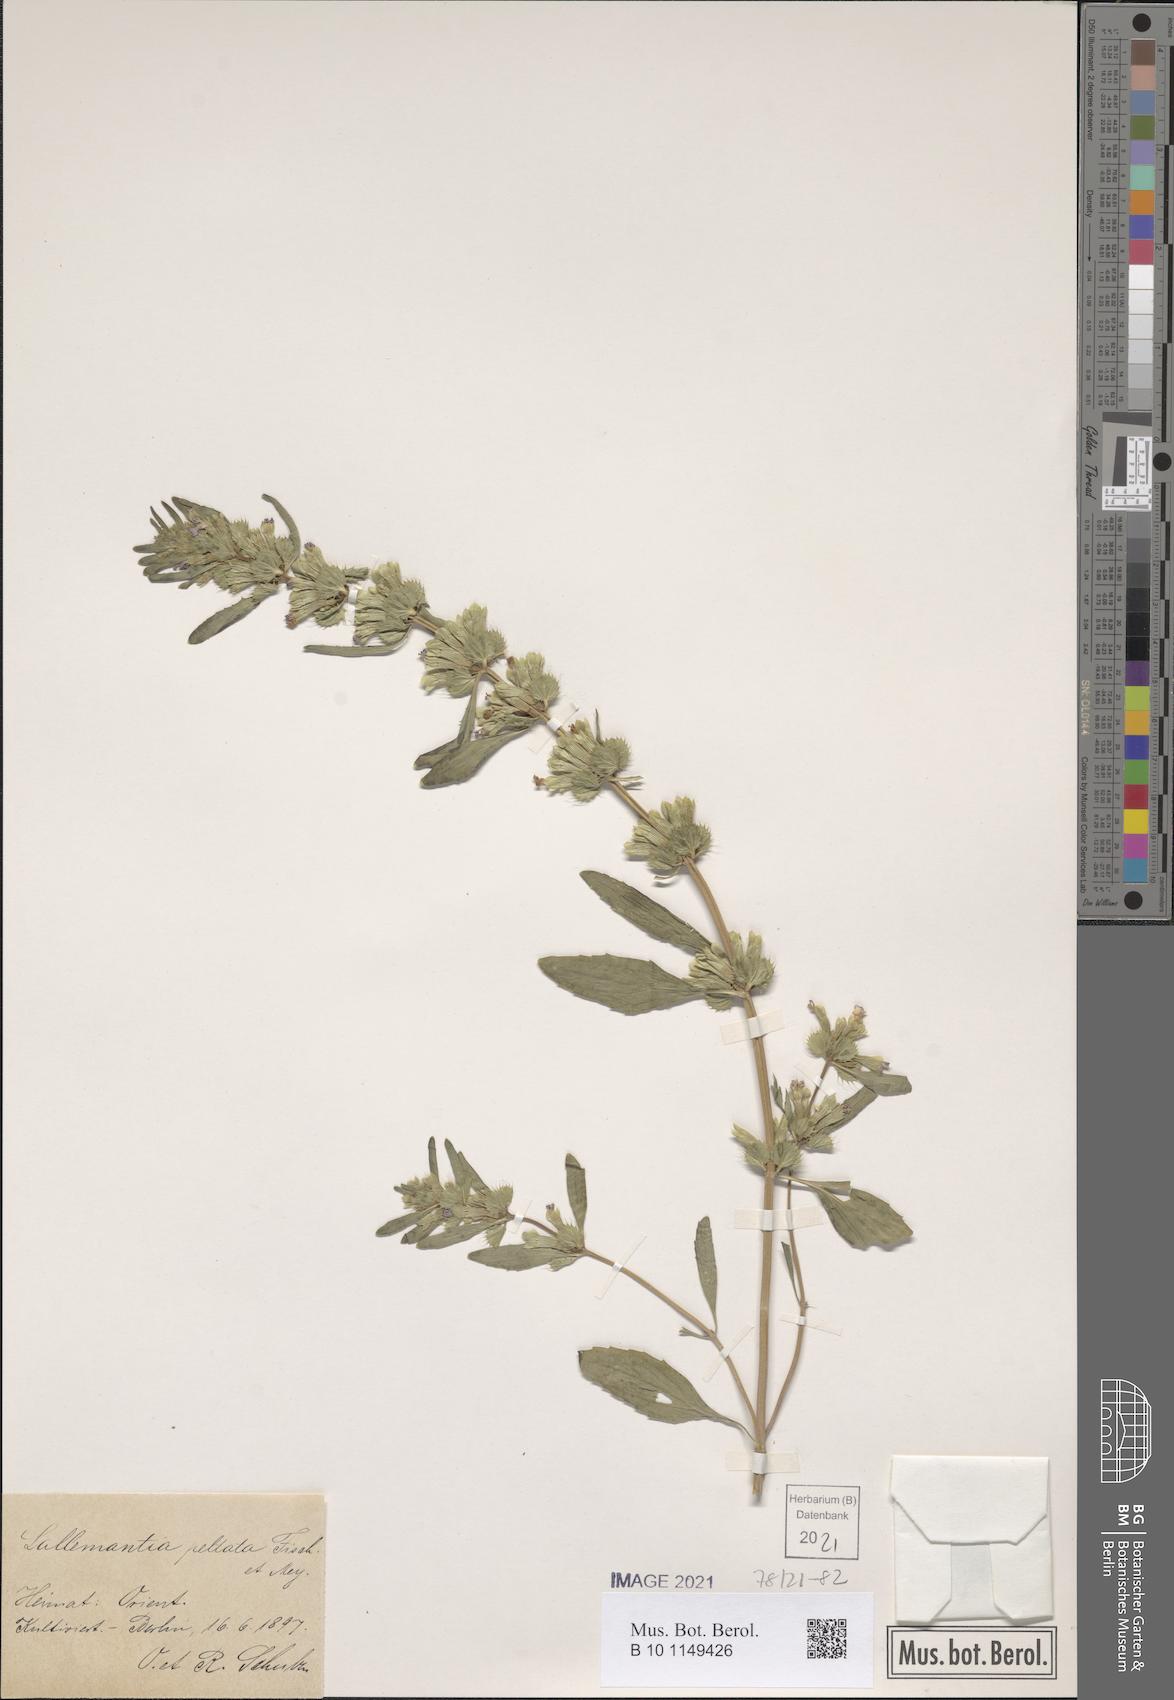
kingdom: Plantae
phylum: Tracheophyta
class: Magnoliopsida
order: Lamiales
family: Lamiaceae
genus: Lallemantia
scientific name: Lallemantia peltata
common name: Lion's heart
